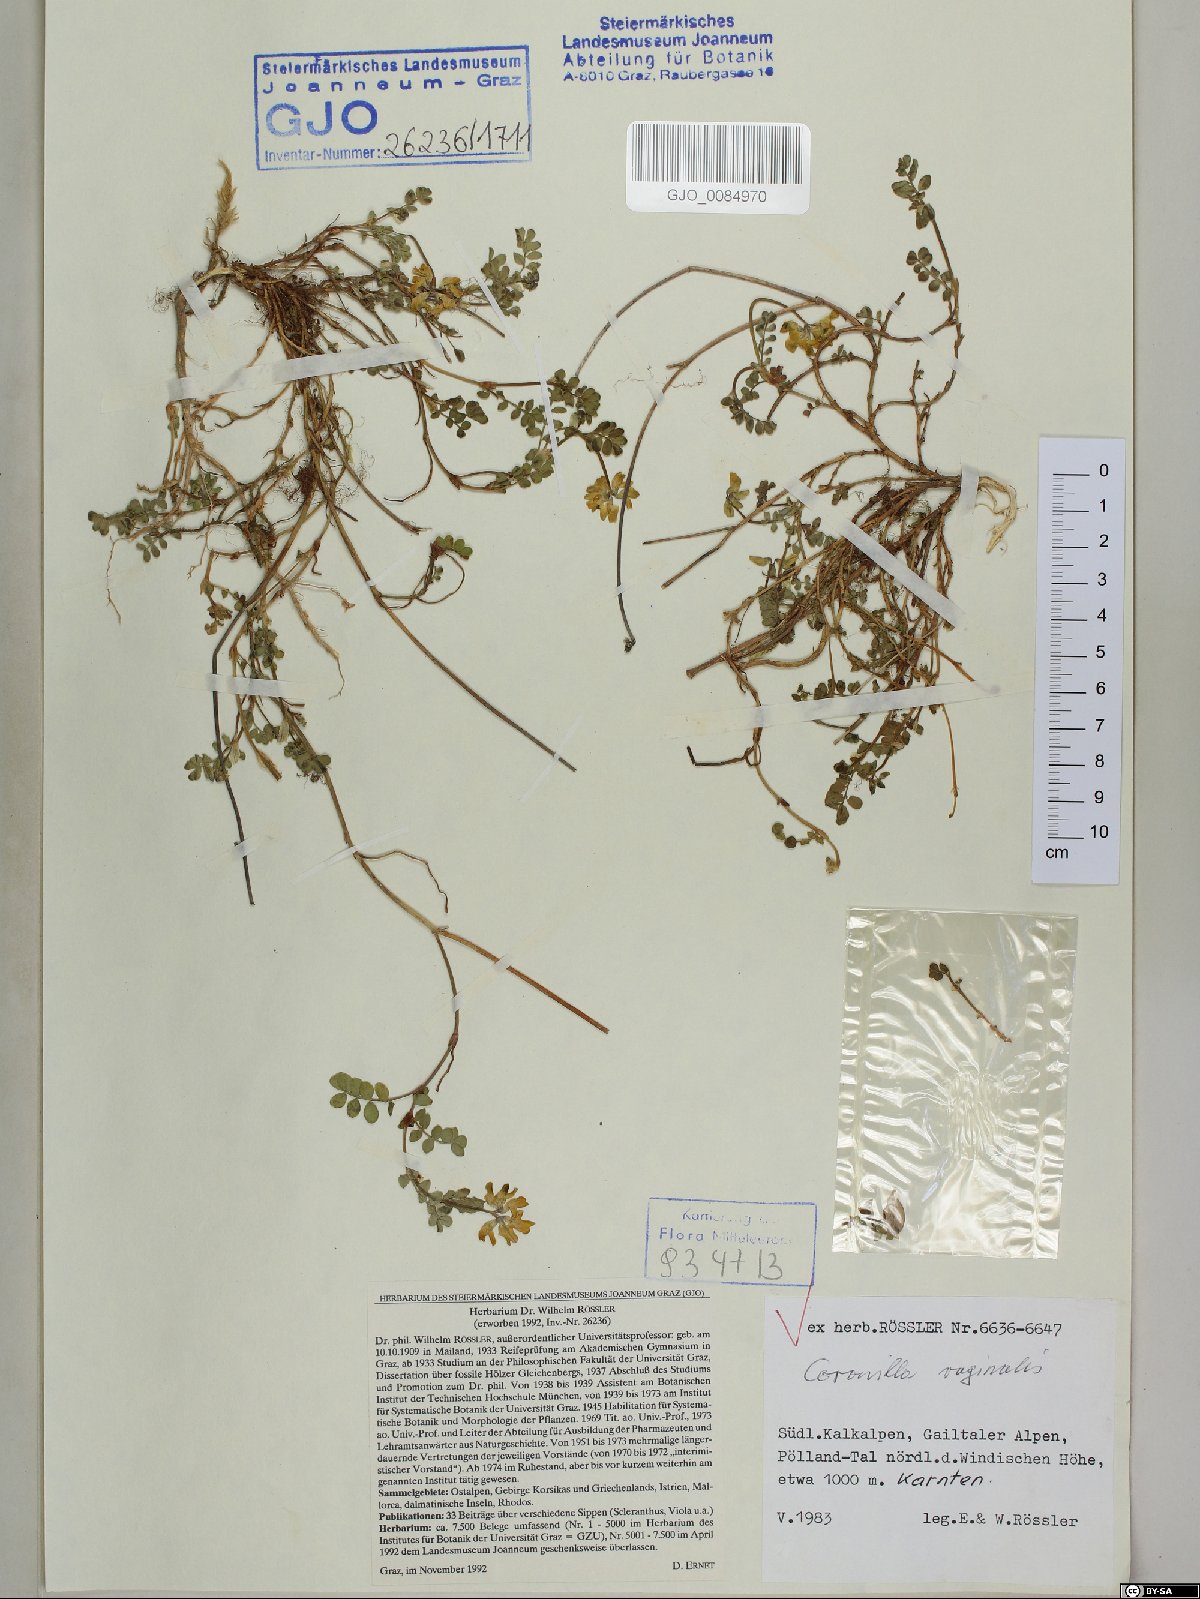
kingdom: Plantae
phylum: Tracheophyta
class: Magnoliopsida
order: Fabales
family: Fabaceae
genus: Coronilla
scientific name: Coronilla vaginalis
